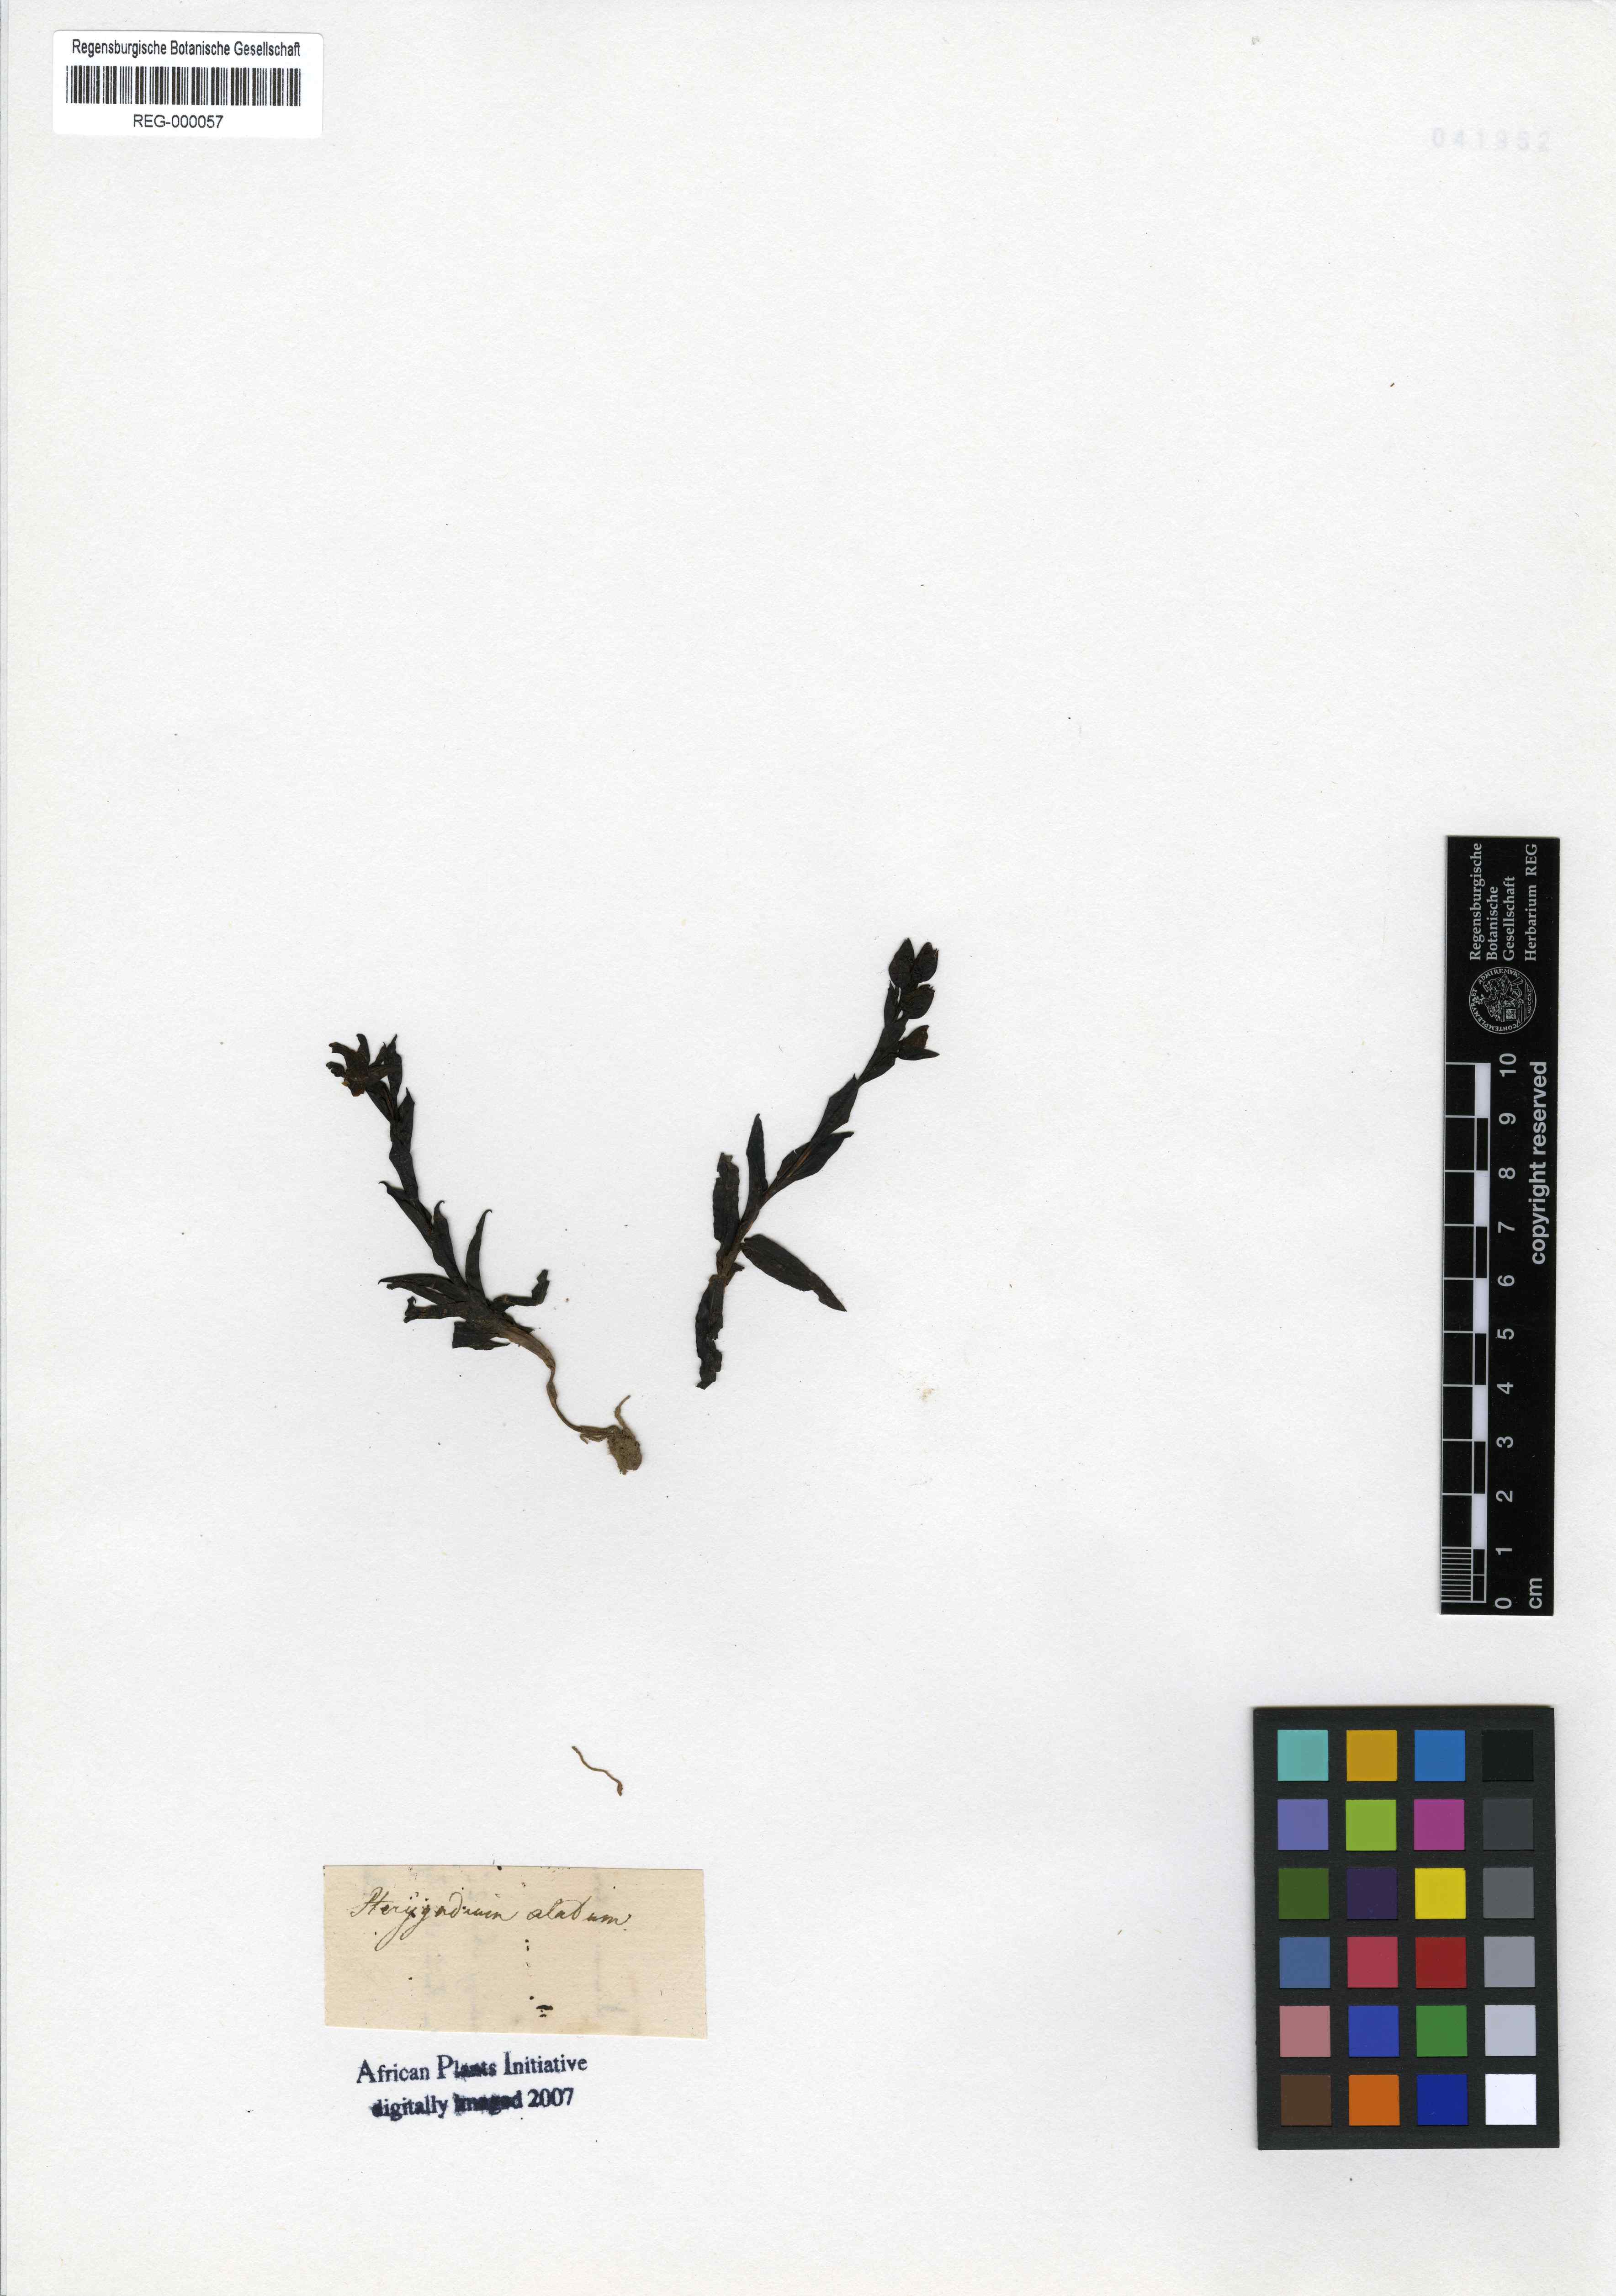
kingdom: Plantae
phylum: Tracheophyta
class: Liliopsida
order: Asparagales
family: Orchidaceae
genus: Pterygodium
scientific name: Pterygodium alatum
